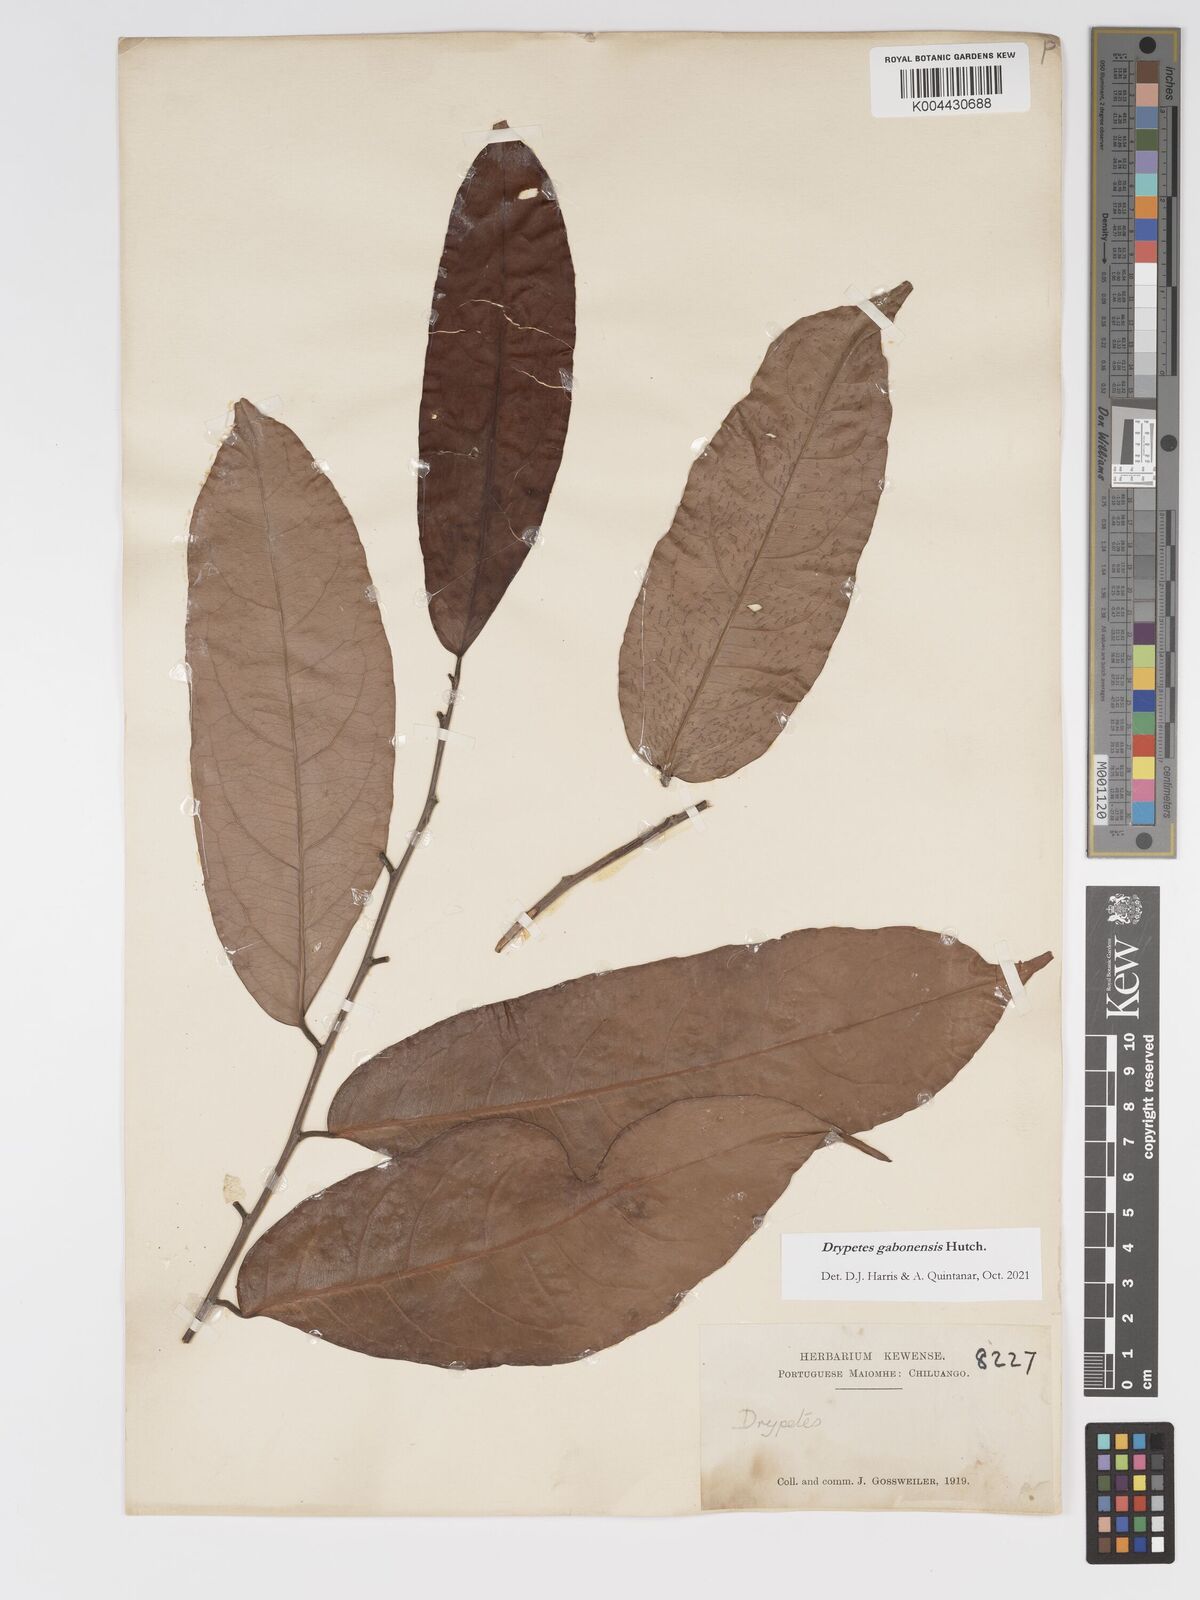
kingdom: Plantae
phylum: Tracheophyta
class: Magnoliopsida
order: Malpighiales
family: Putranjivaceae
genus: Drypetes
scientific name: Drypetes gabonensis
